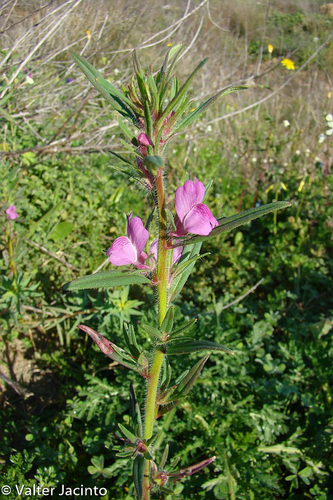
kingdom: Plantae
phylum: Tracheophyta
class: Magnoliopsida
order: Lamiales
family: Plantaginaceae
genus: Misopates
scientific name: Misopates orontium
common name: Weasel's-snout
